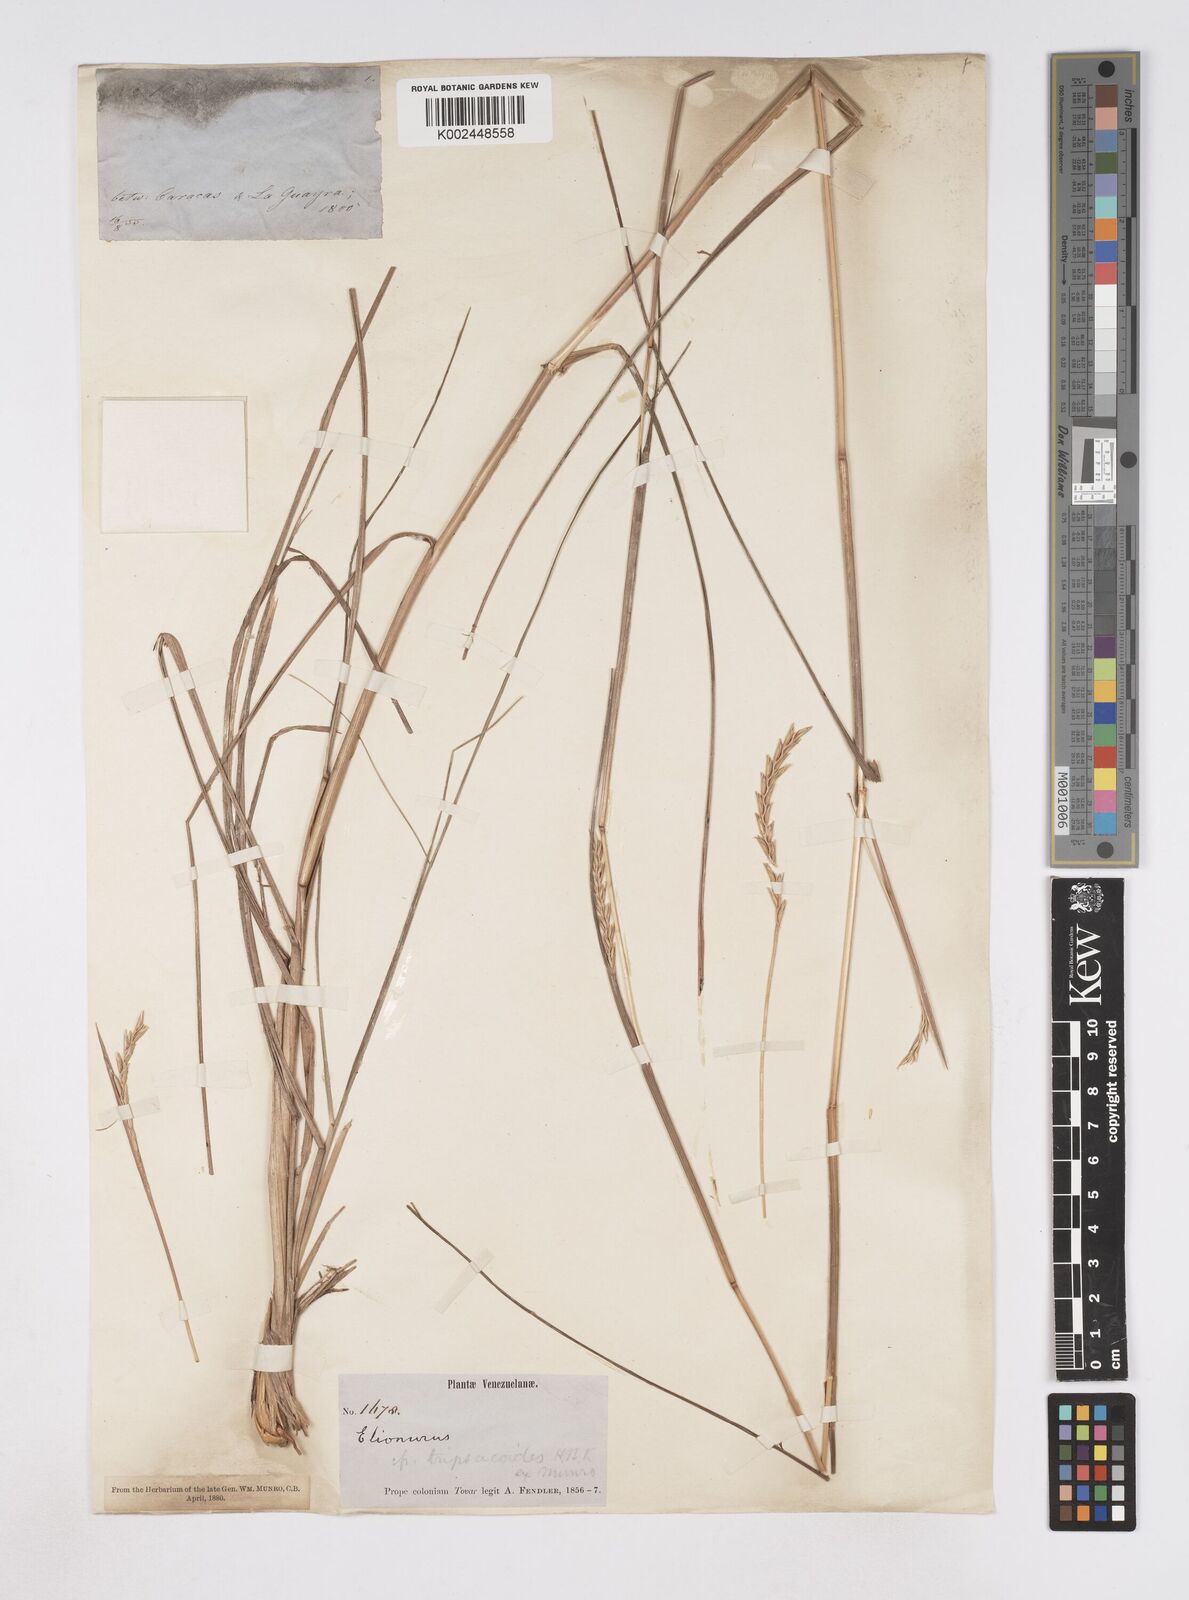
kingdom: Plantae
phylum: Tracheophyta
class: Liliopsida
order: Poales
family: Poaceae
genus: Elionurus
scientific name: Elionurus tripsacoides
